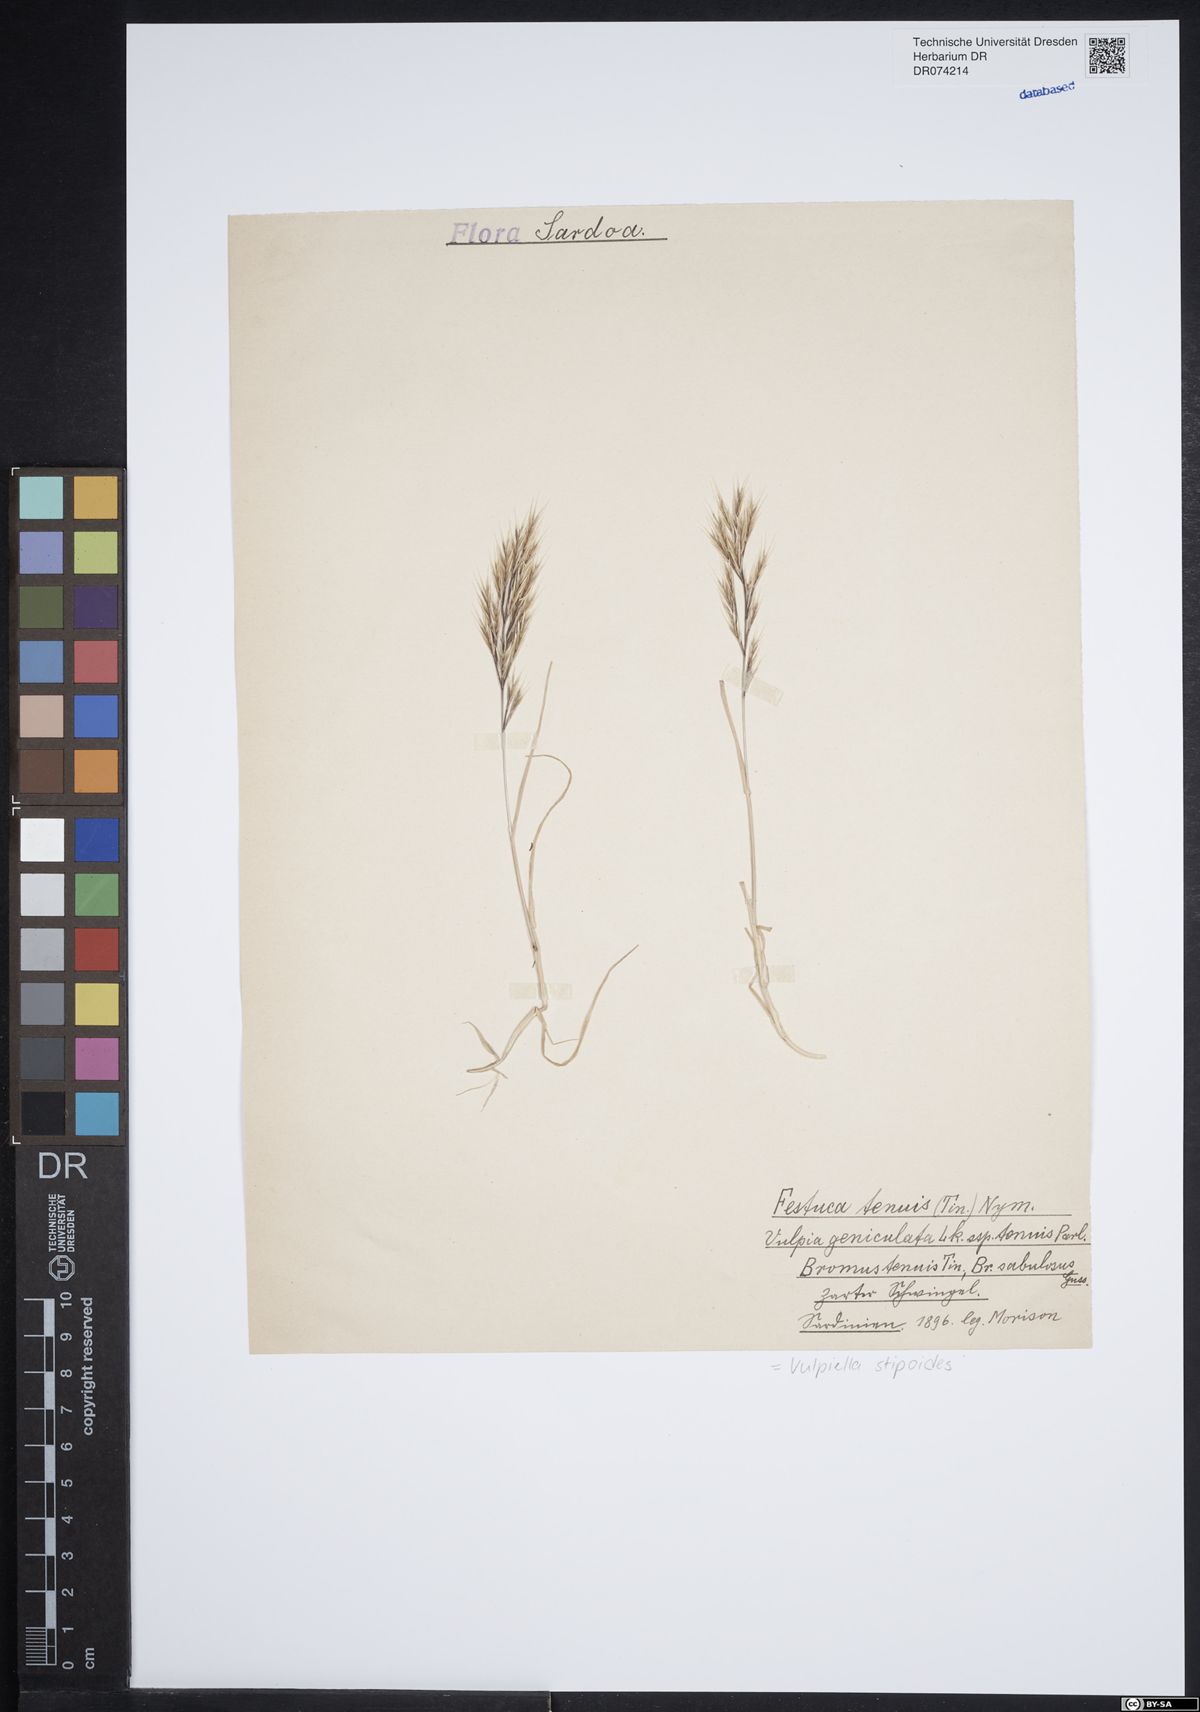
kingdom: Plantae
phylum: Tracheophyta
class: Liliopsida
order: Poales
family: Poaceae
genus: Vulpiella
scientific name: Vulpiella stipoides
